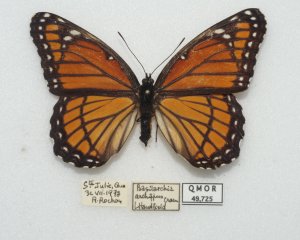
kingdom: Animalia
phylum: Arthropoda
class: Insecta
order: Lepidoptera
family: Nymphalidae
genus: Limenitis
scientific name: Limenitis archippus
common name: Viceroy
